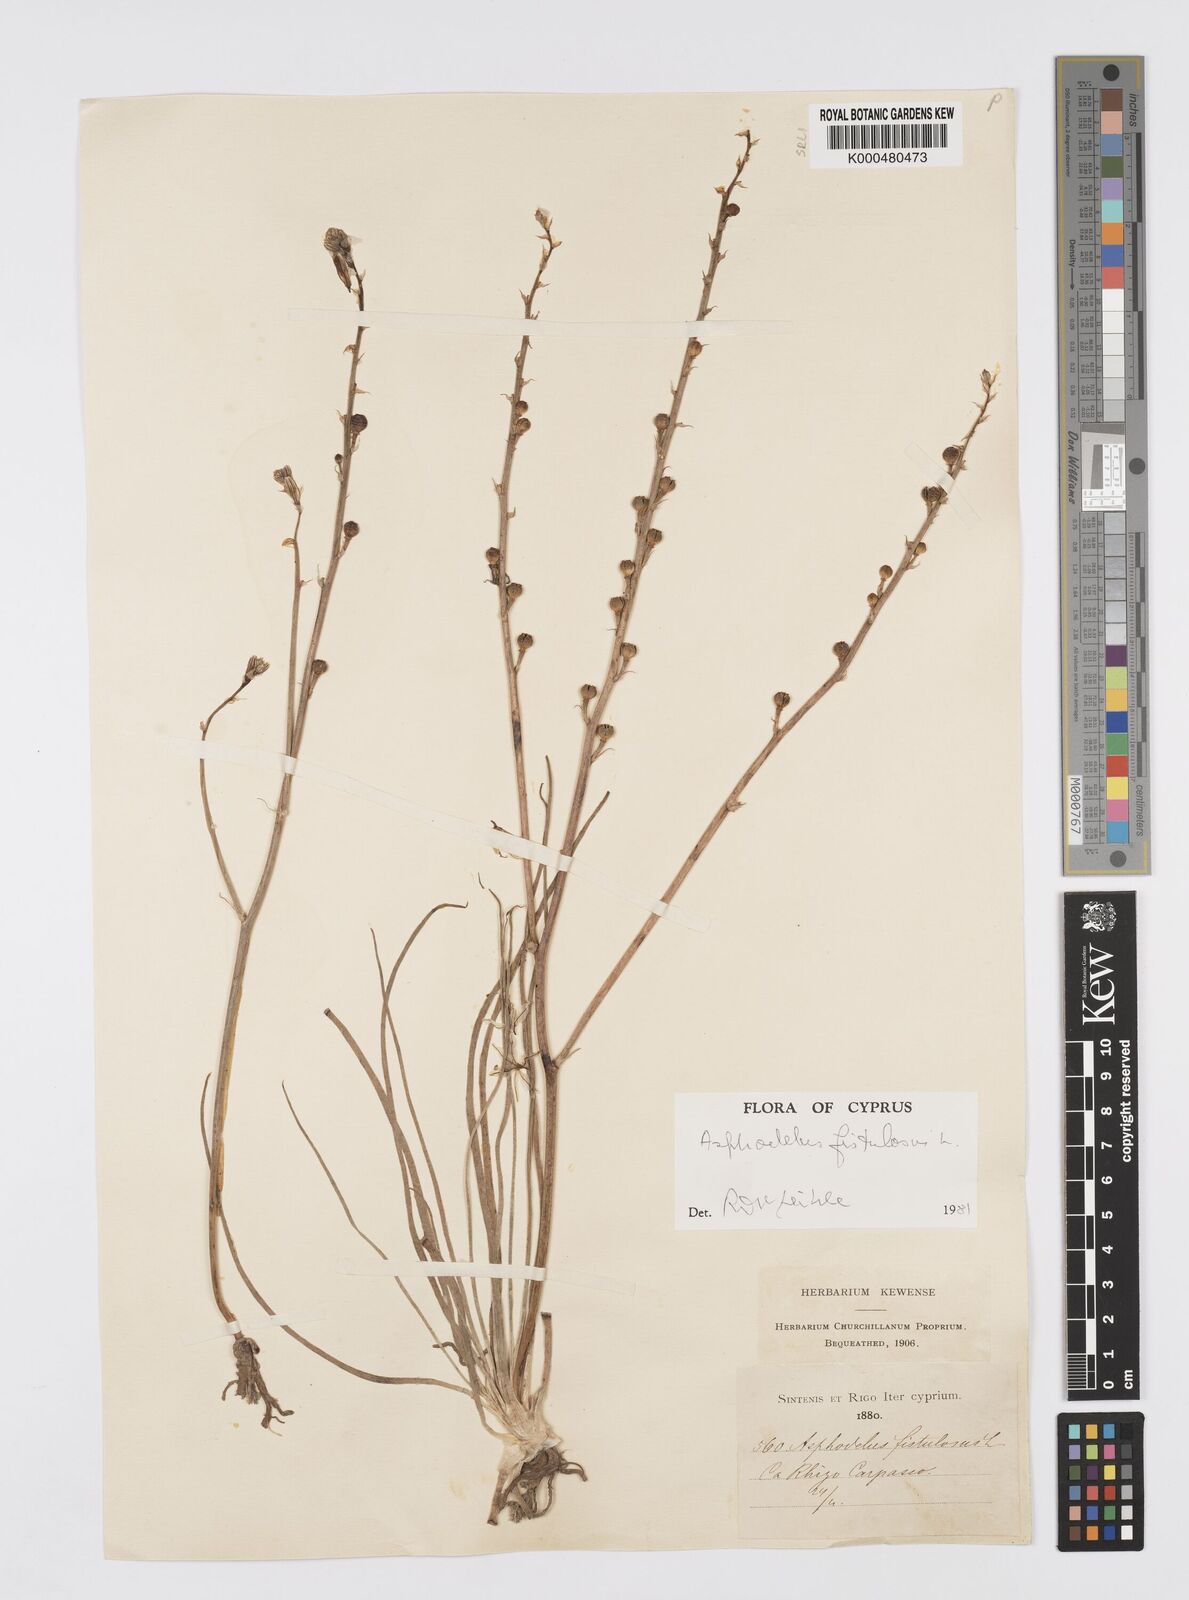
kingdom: Plantae
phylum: Tracheophyta
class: Liliopsida
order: Asparagales
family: Asphodelaceae
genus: Asphodelus
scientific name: Asphodelus fistulosus
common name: Onionweed
